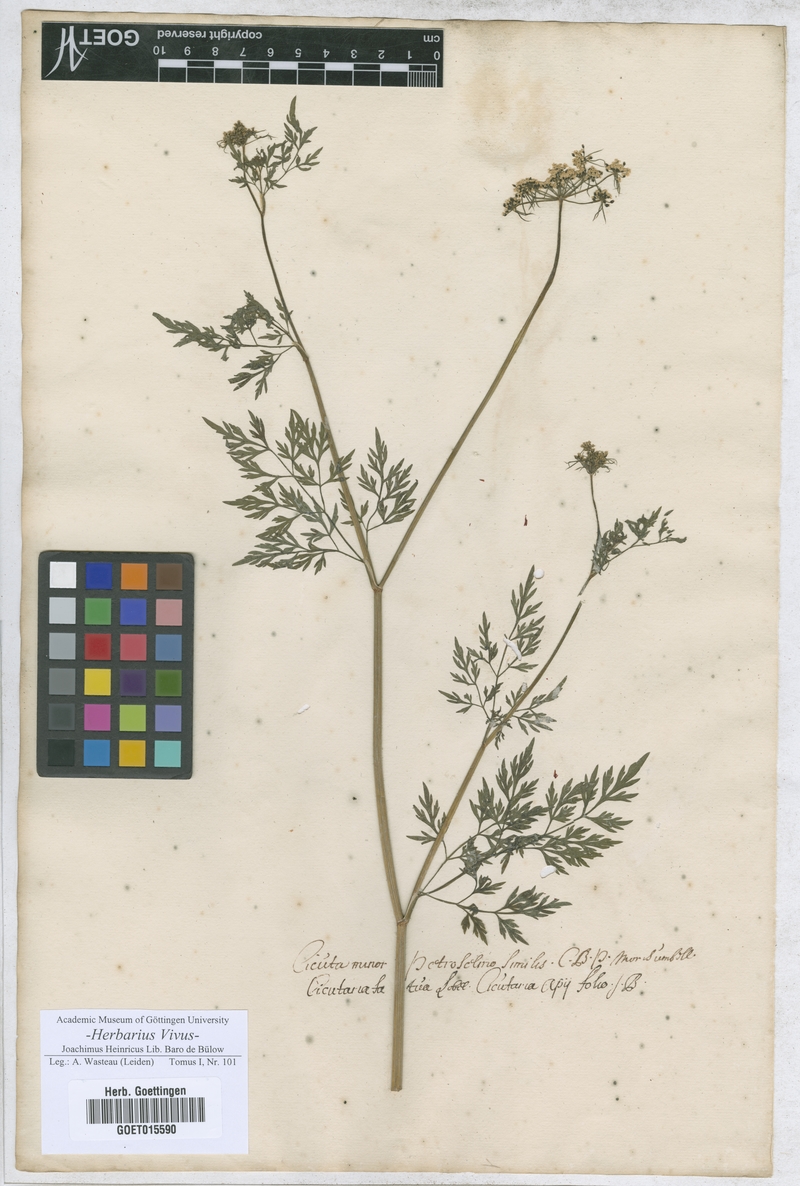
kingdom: Plantae
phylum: Tracheophyta
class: Magnoliopsida
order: Apiales
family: Apiaceae
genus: Aethusa
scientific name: Aethusa cynapium
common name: Fool's parsley
